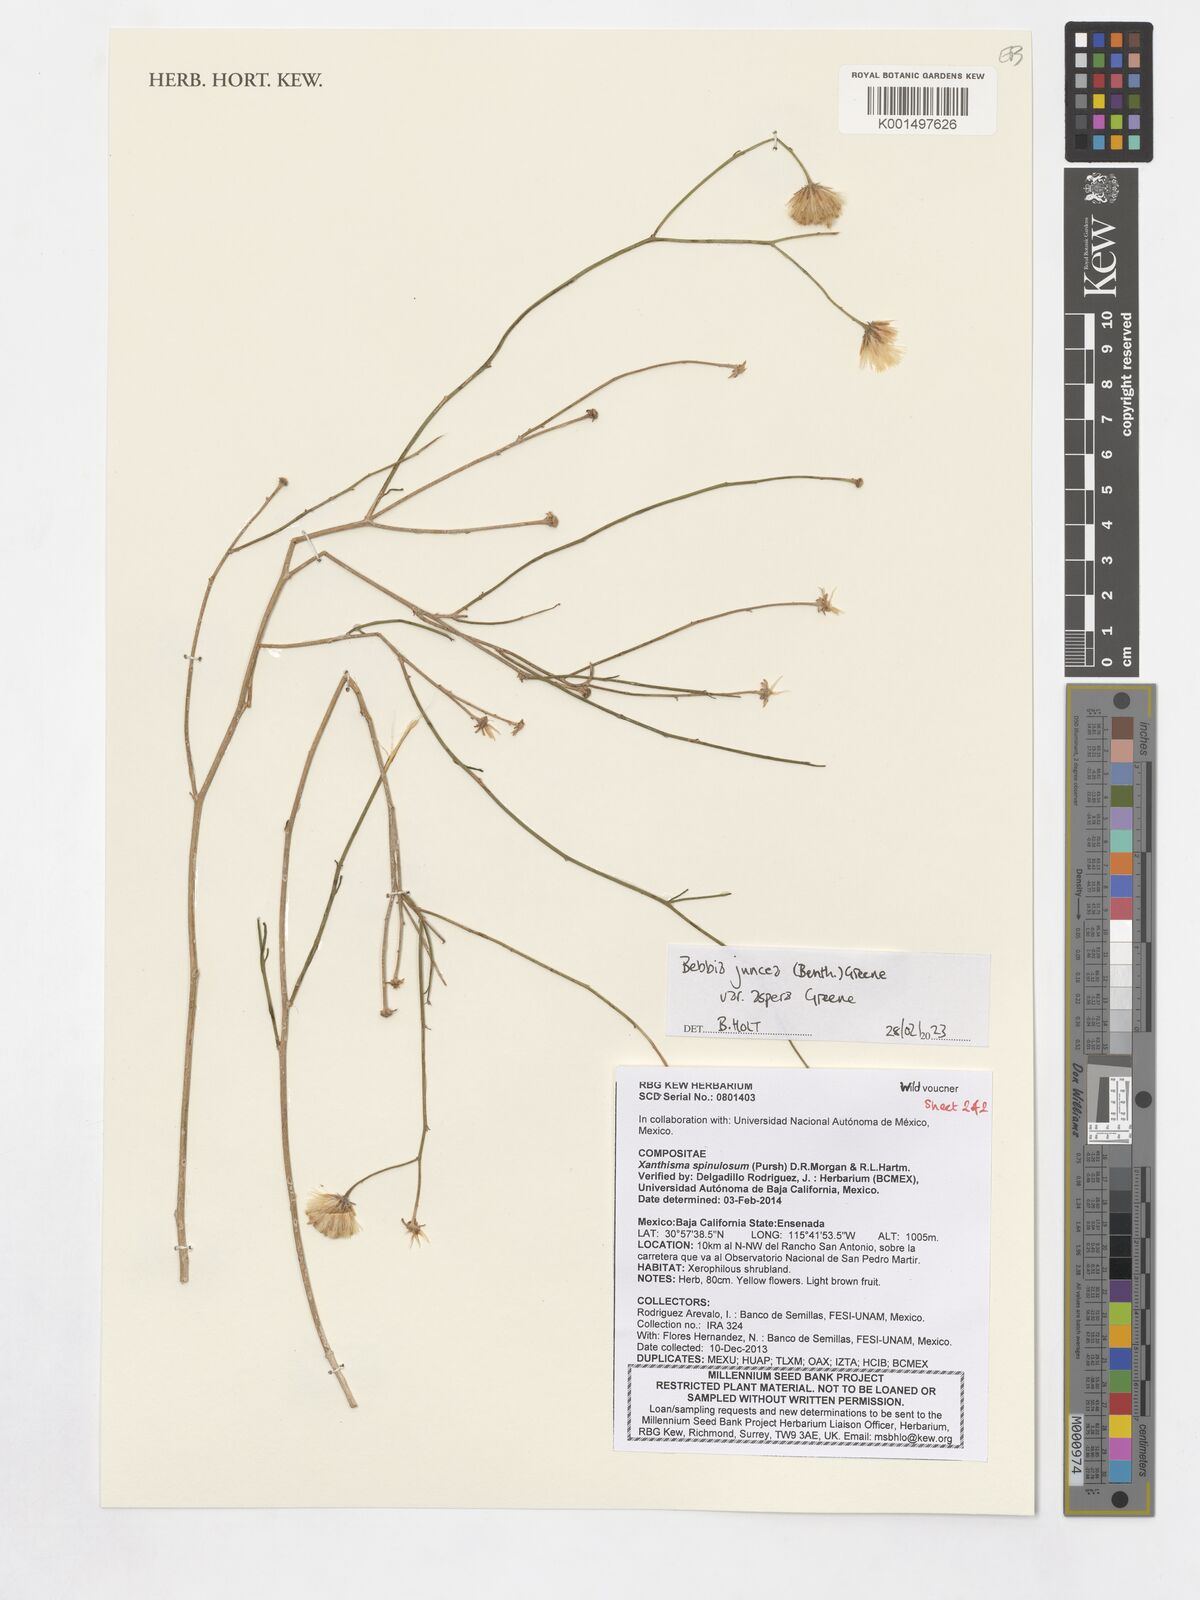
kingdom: Plantae
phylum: Tracheophyta
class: Magnoliopsida
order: Asterales
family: Asteraceae
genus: Bebbia
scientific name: Bebbia juncea
